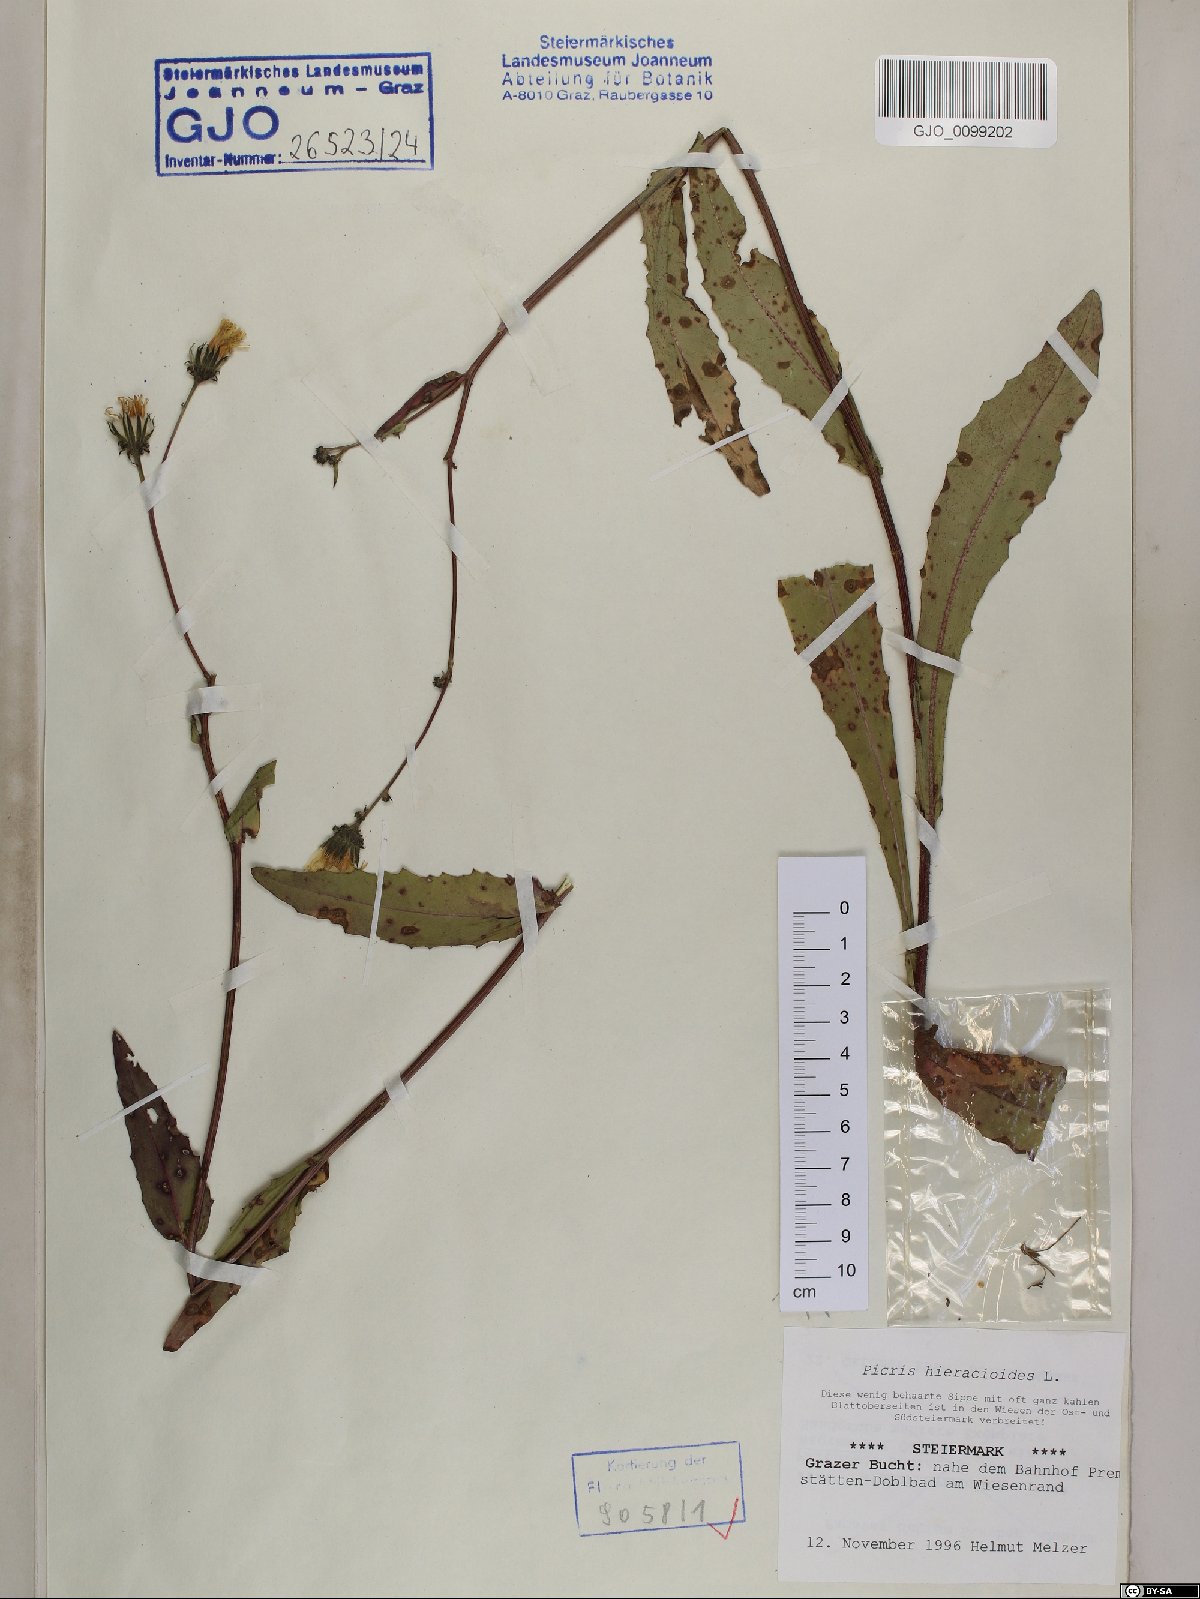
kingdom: Plantae
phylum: Tracheophyta
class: Magnoliopsida
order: Asterales
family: Asteraceae
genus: Picris
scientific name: Picris hieracioides
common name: Hawkweed oxtongue
